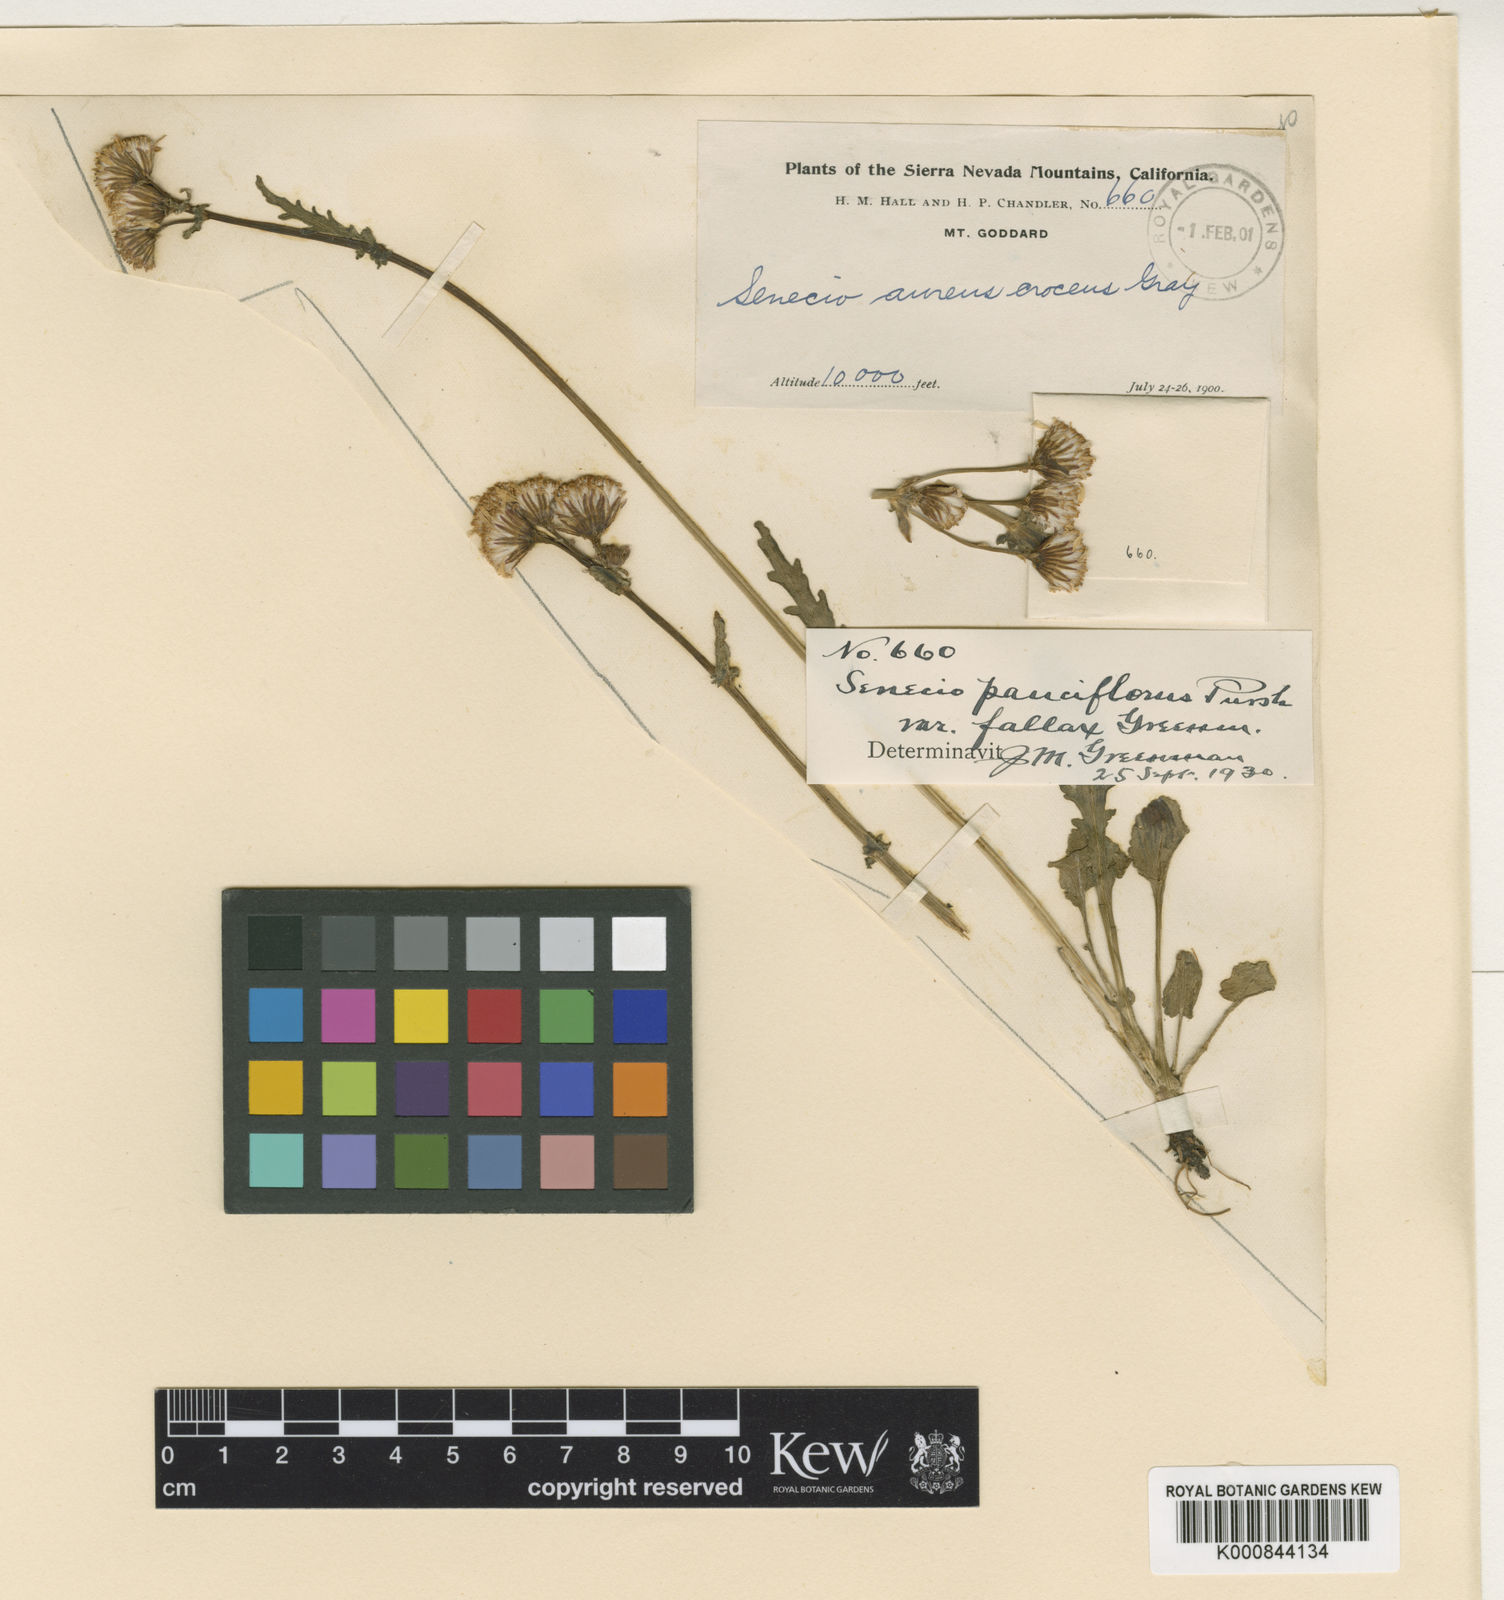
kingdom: Plantae
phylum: Tracheophyta
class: Magnoliopsida
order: Asterales
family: Asteraceae
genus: Packera
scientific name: Packera
